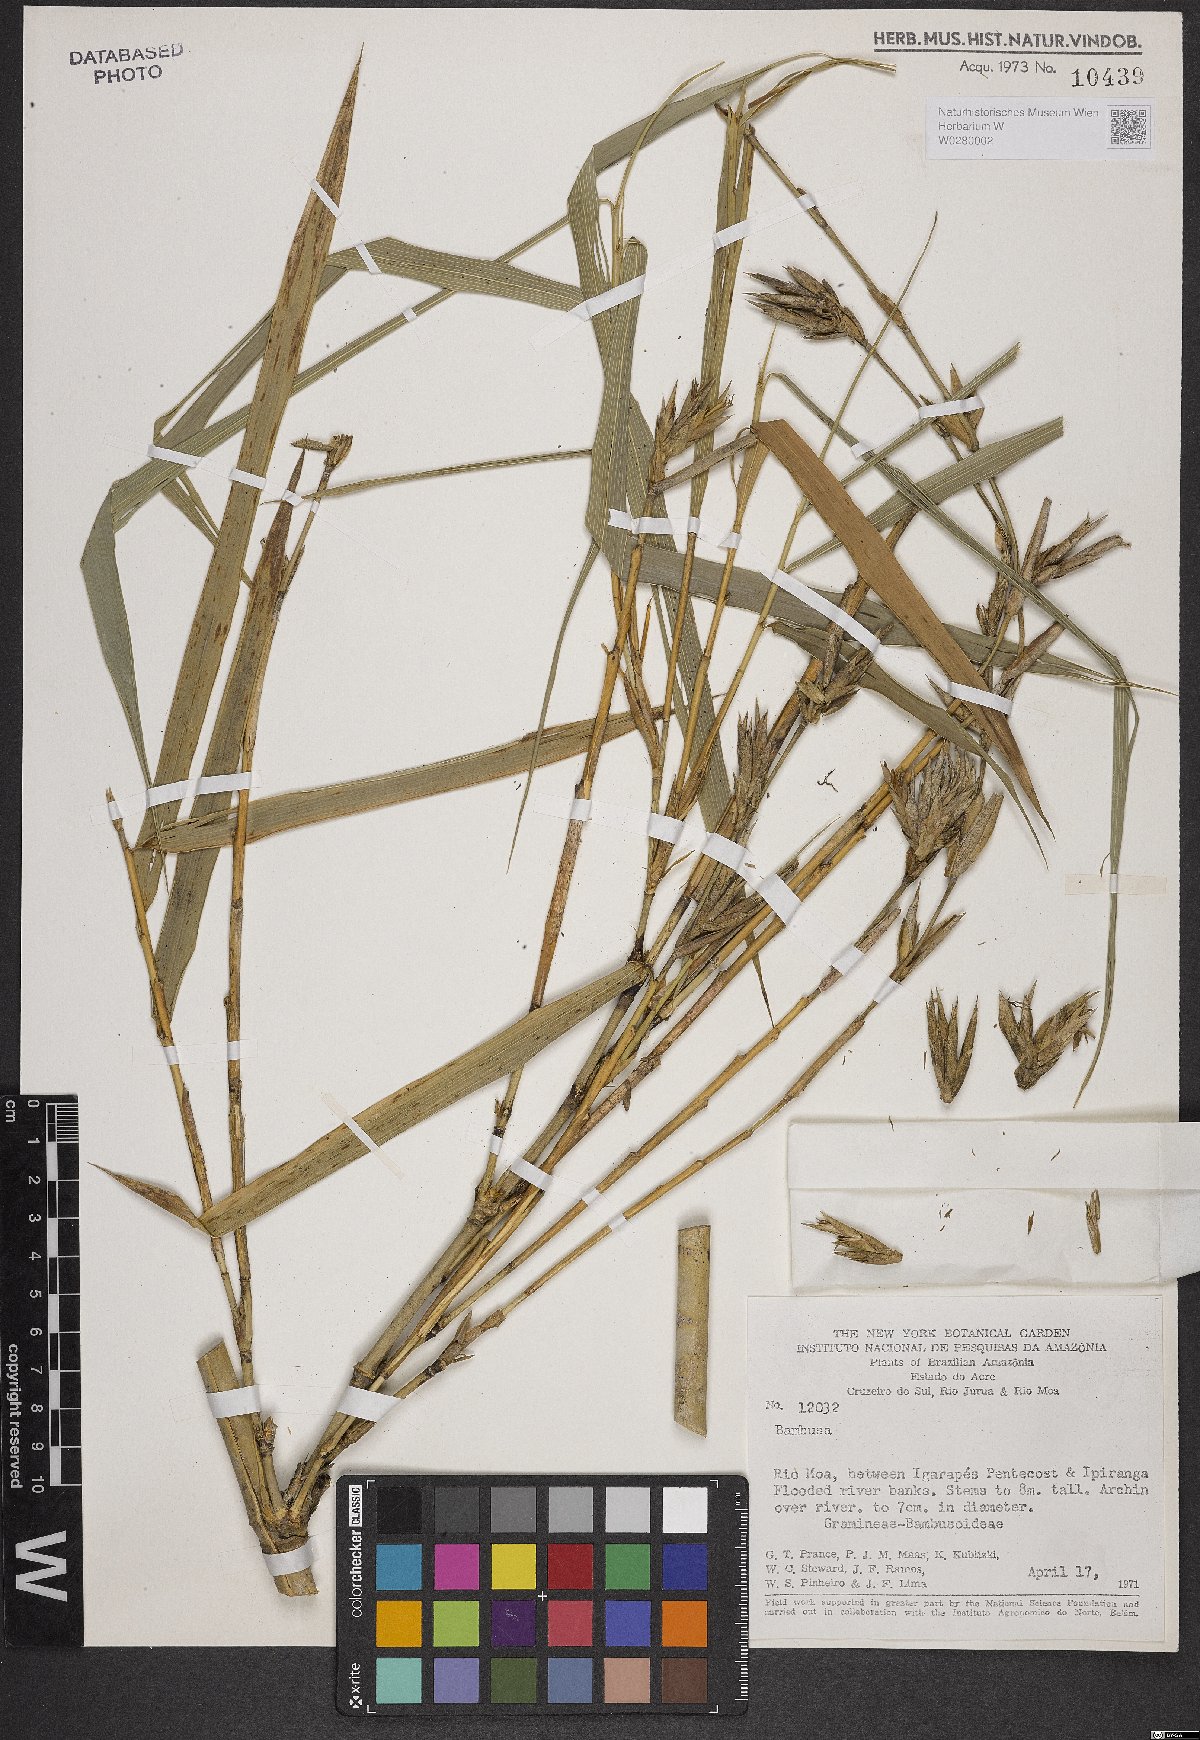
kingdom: Plantae
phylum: Tracheophyta
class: Liliopsida
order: Poales
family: Poaceae
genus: Bambusa
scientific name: Bambusa
